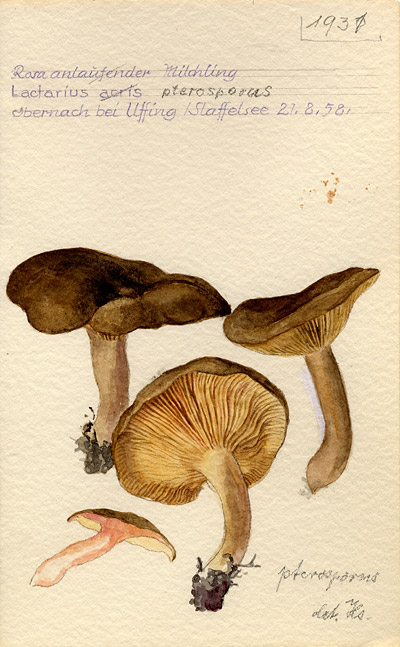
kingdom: Fungi
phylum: Basidiomycota
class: Agaricomycetes
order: Russulales
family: Russulaceae
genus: Lactarius
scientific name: Lactarius pterosporus
